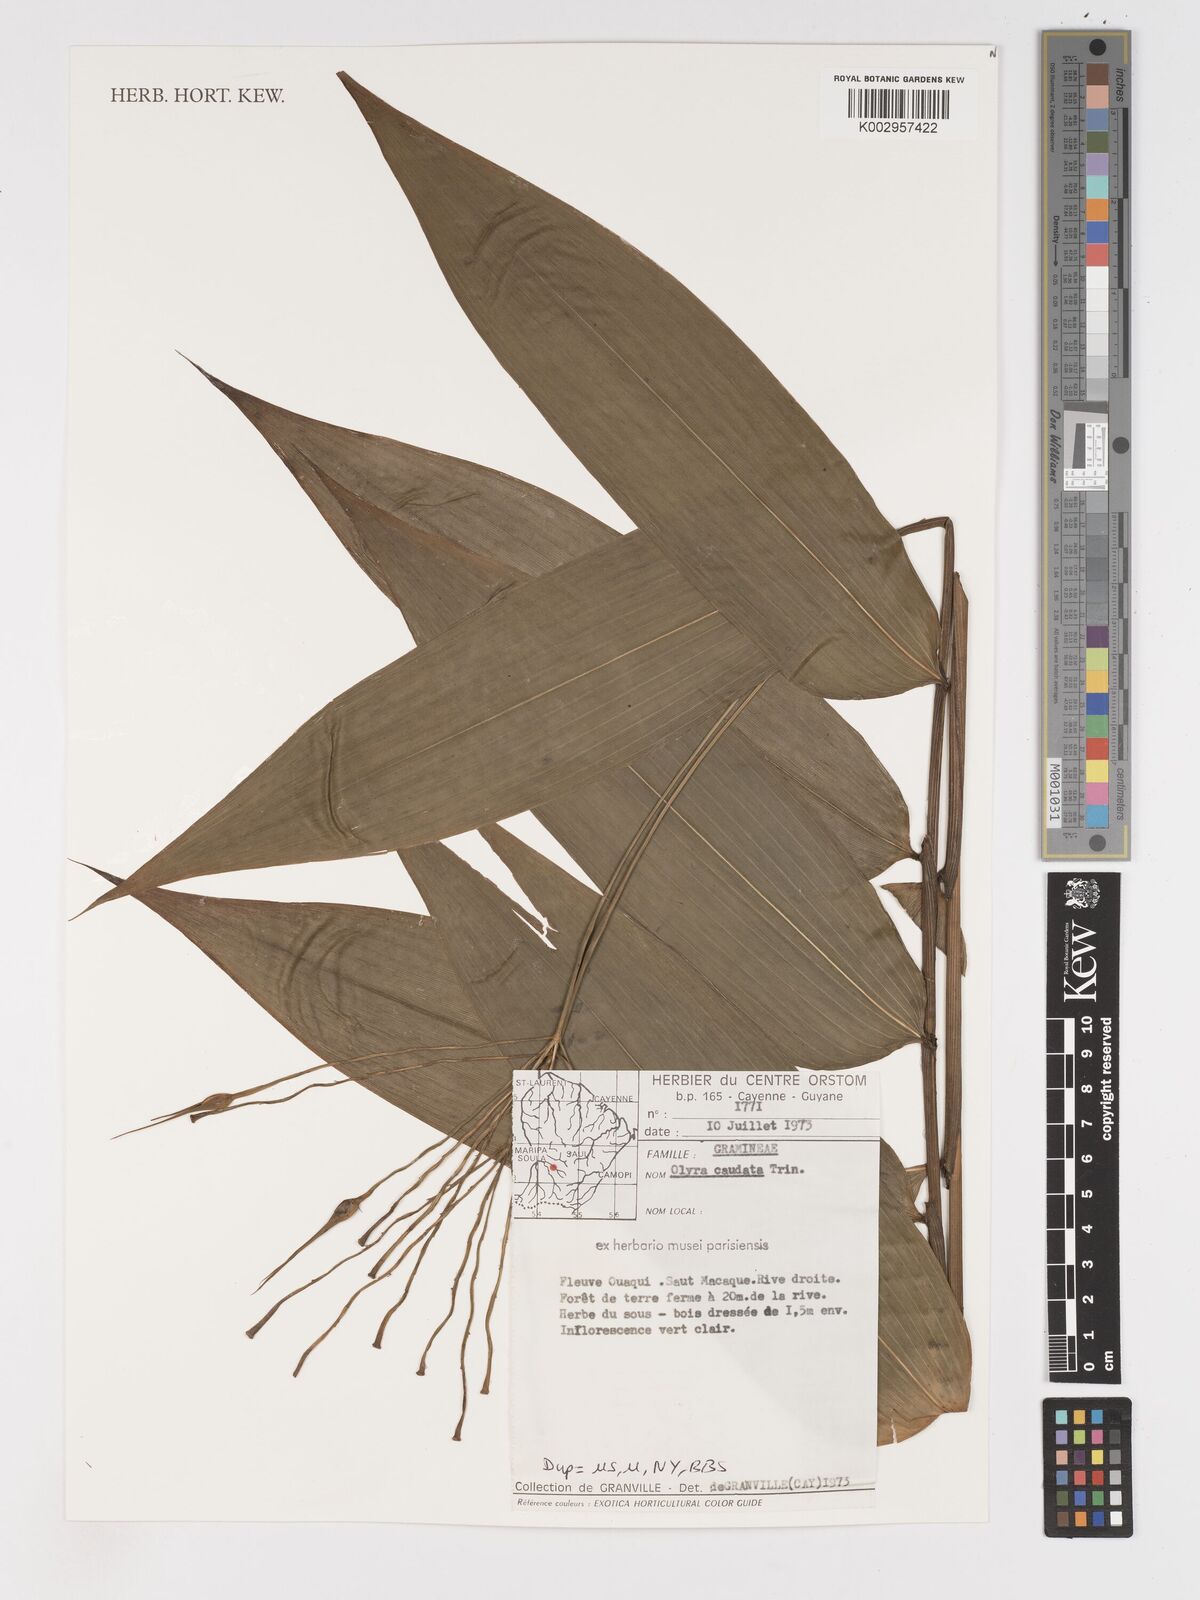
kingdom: Plantae
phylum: Tracheophyta
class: Liliopsida
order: Poales
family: Poaceae
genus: Olyra
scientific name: Olyra caudata
